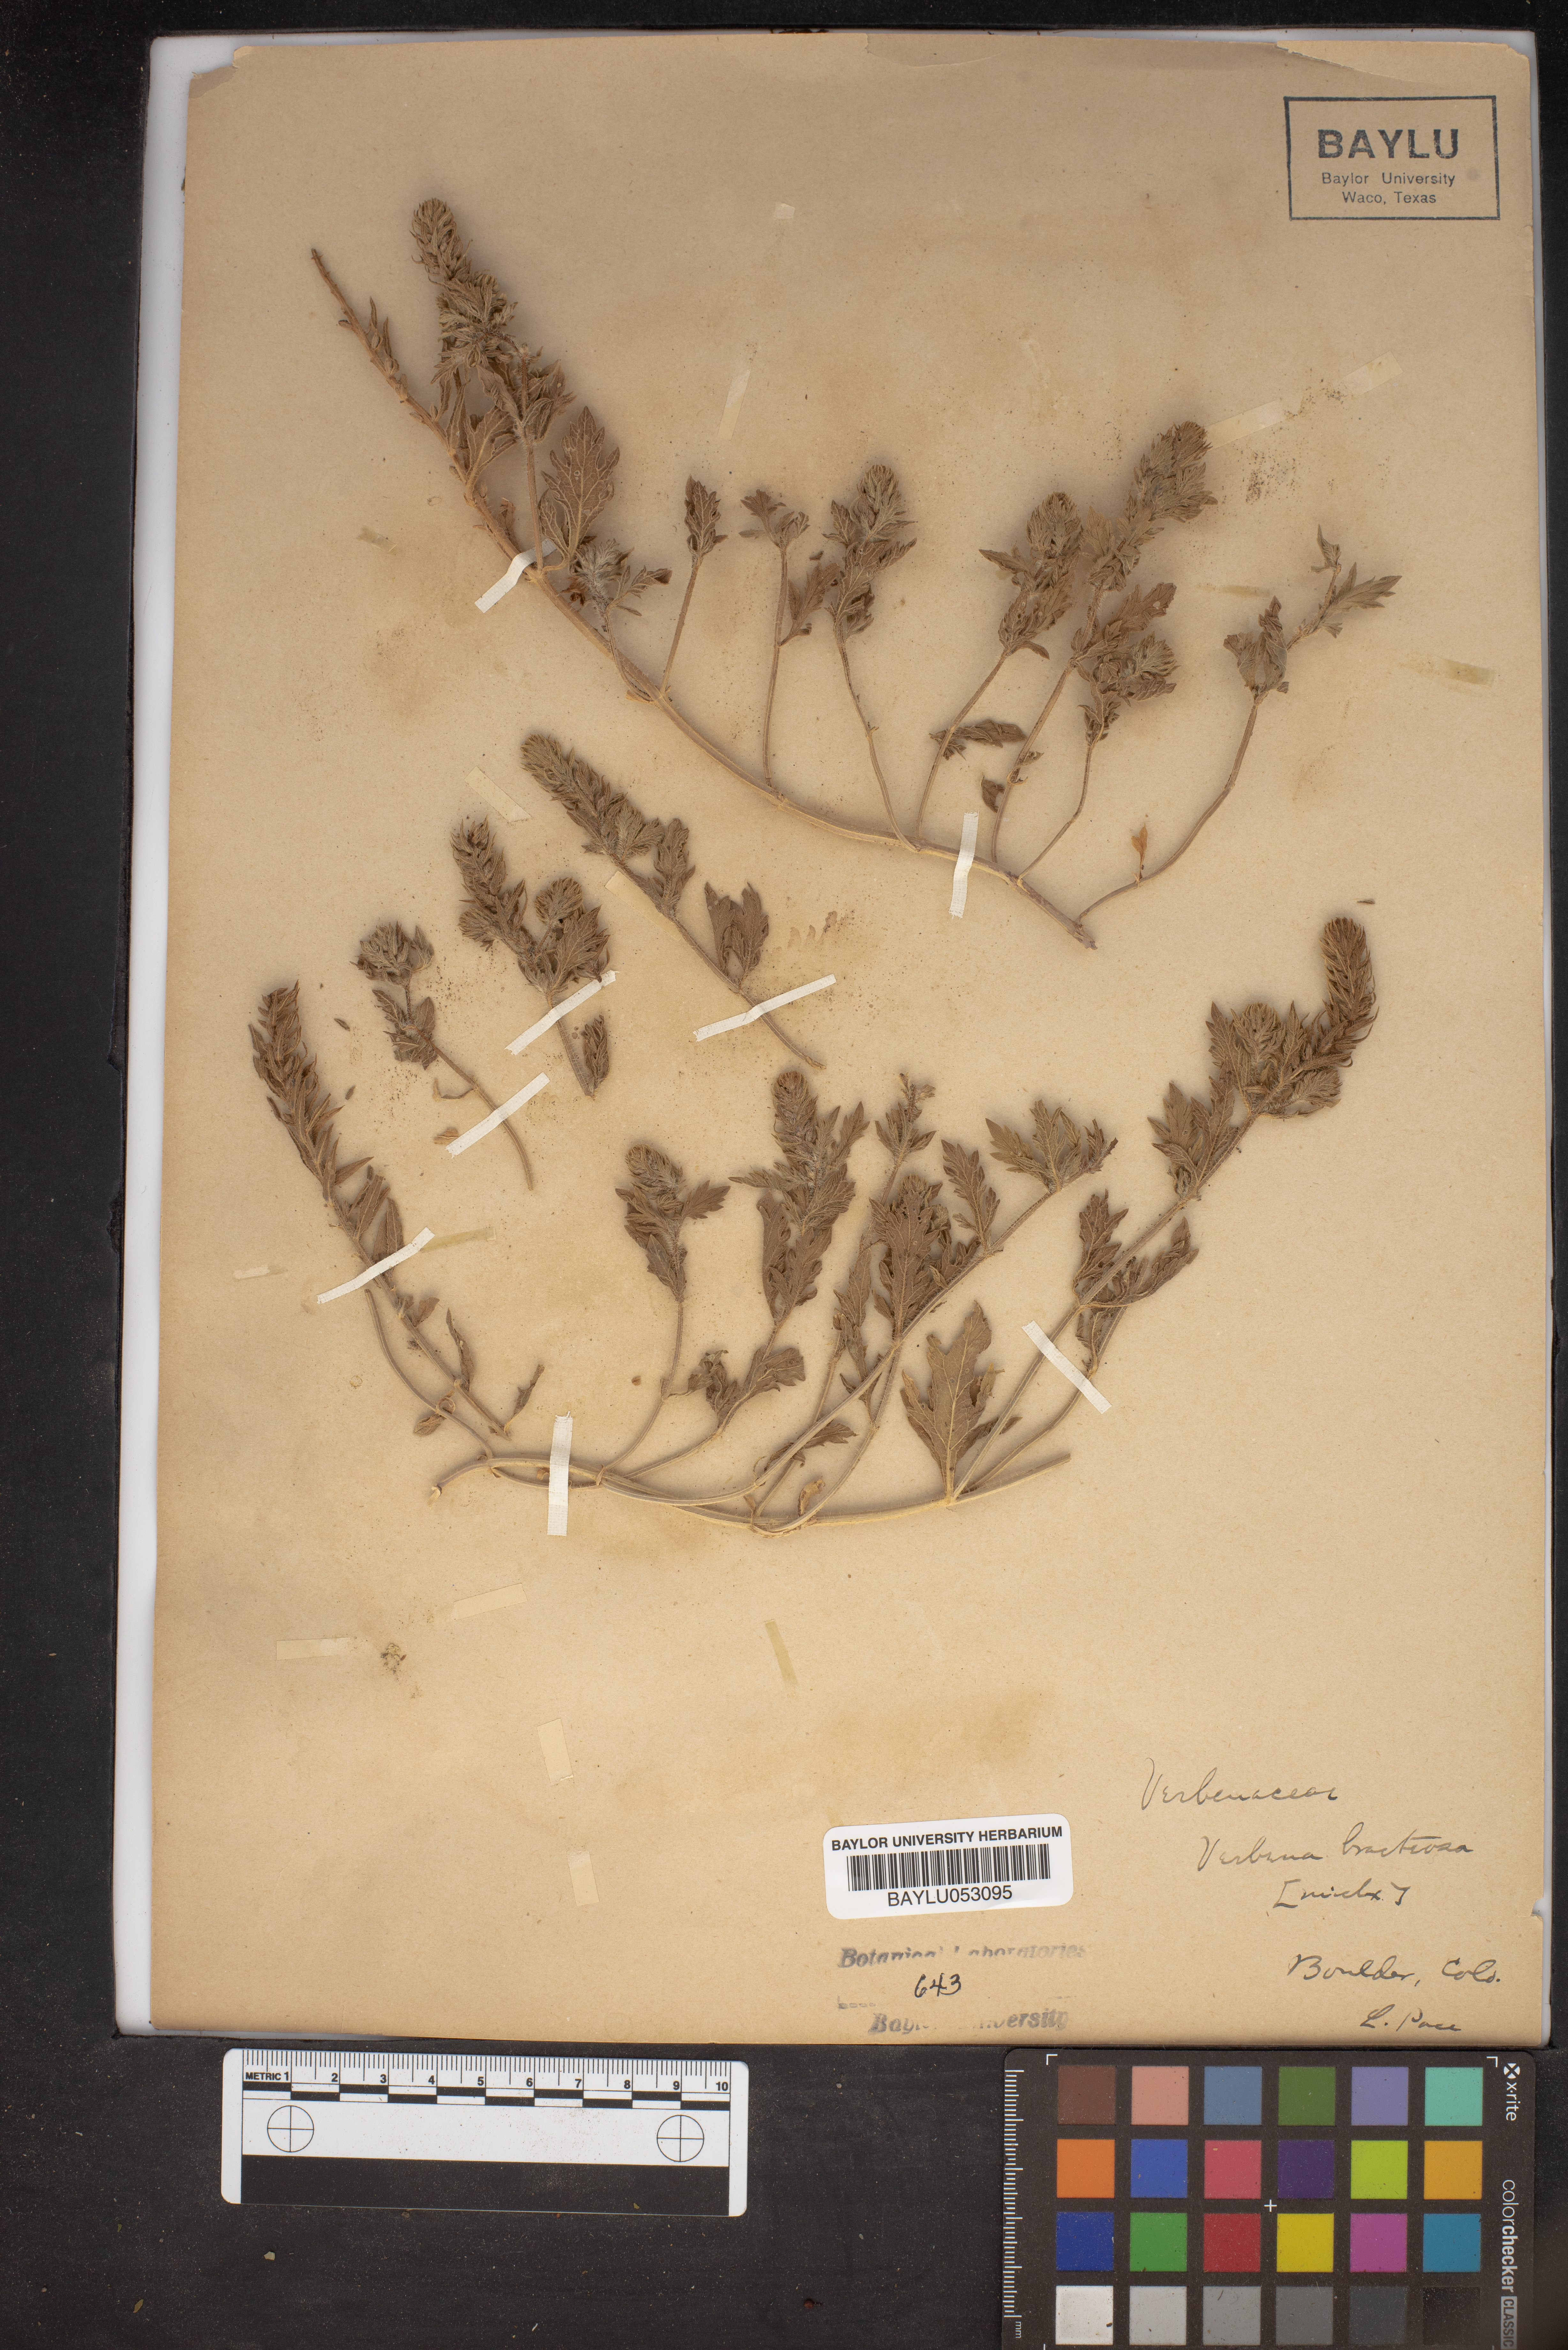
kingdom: Plantae
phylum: Tracheophyta
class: Magnoliopsida
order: Lamiales
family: Verbenaceae
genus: Verbena
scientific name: Verbena bracteata
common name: Bracted vervain
